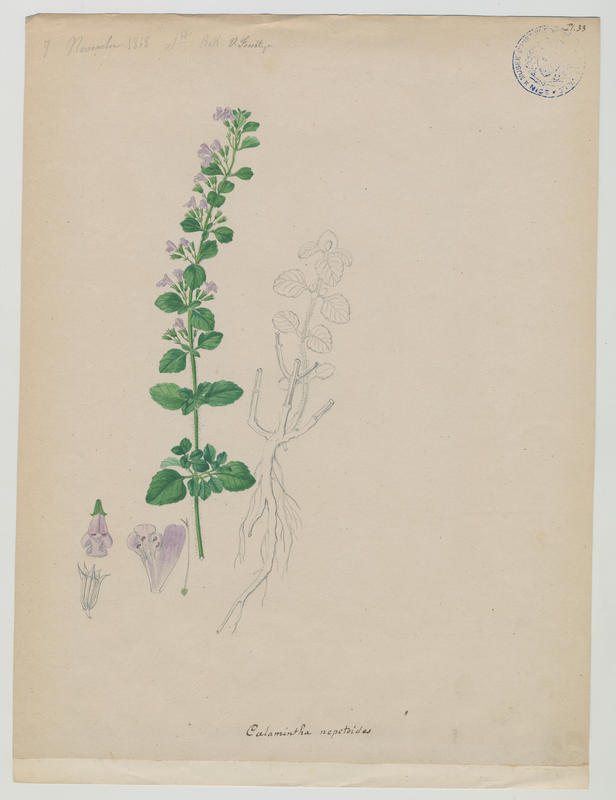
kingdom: Plantae
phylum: Tracheophyta
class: Magnoliopsida
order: Lamiales
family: Lamiaceae
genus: Clinopodium
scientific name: Clinopodium nepeta
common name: Lesser calamint
